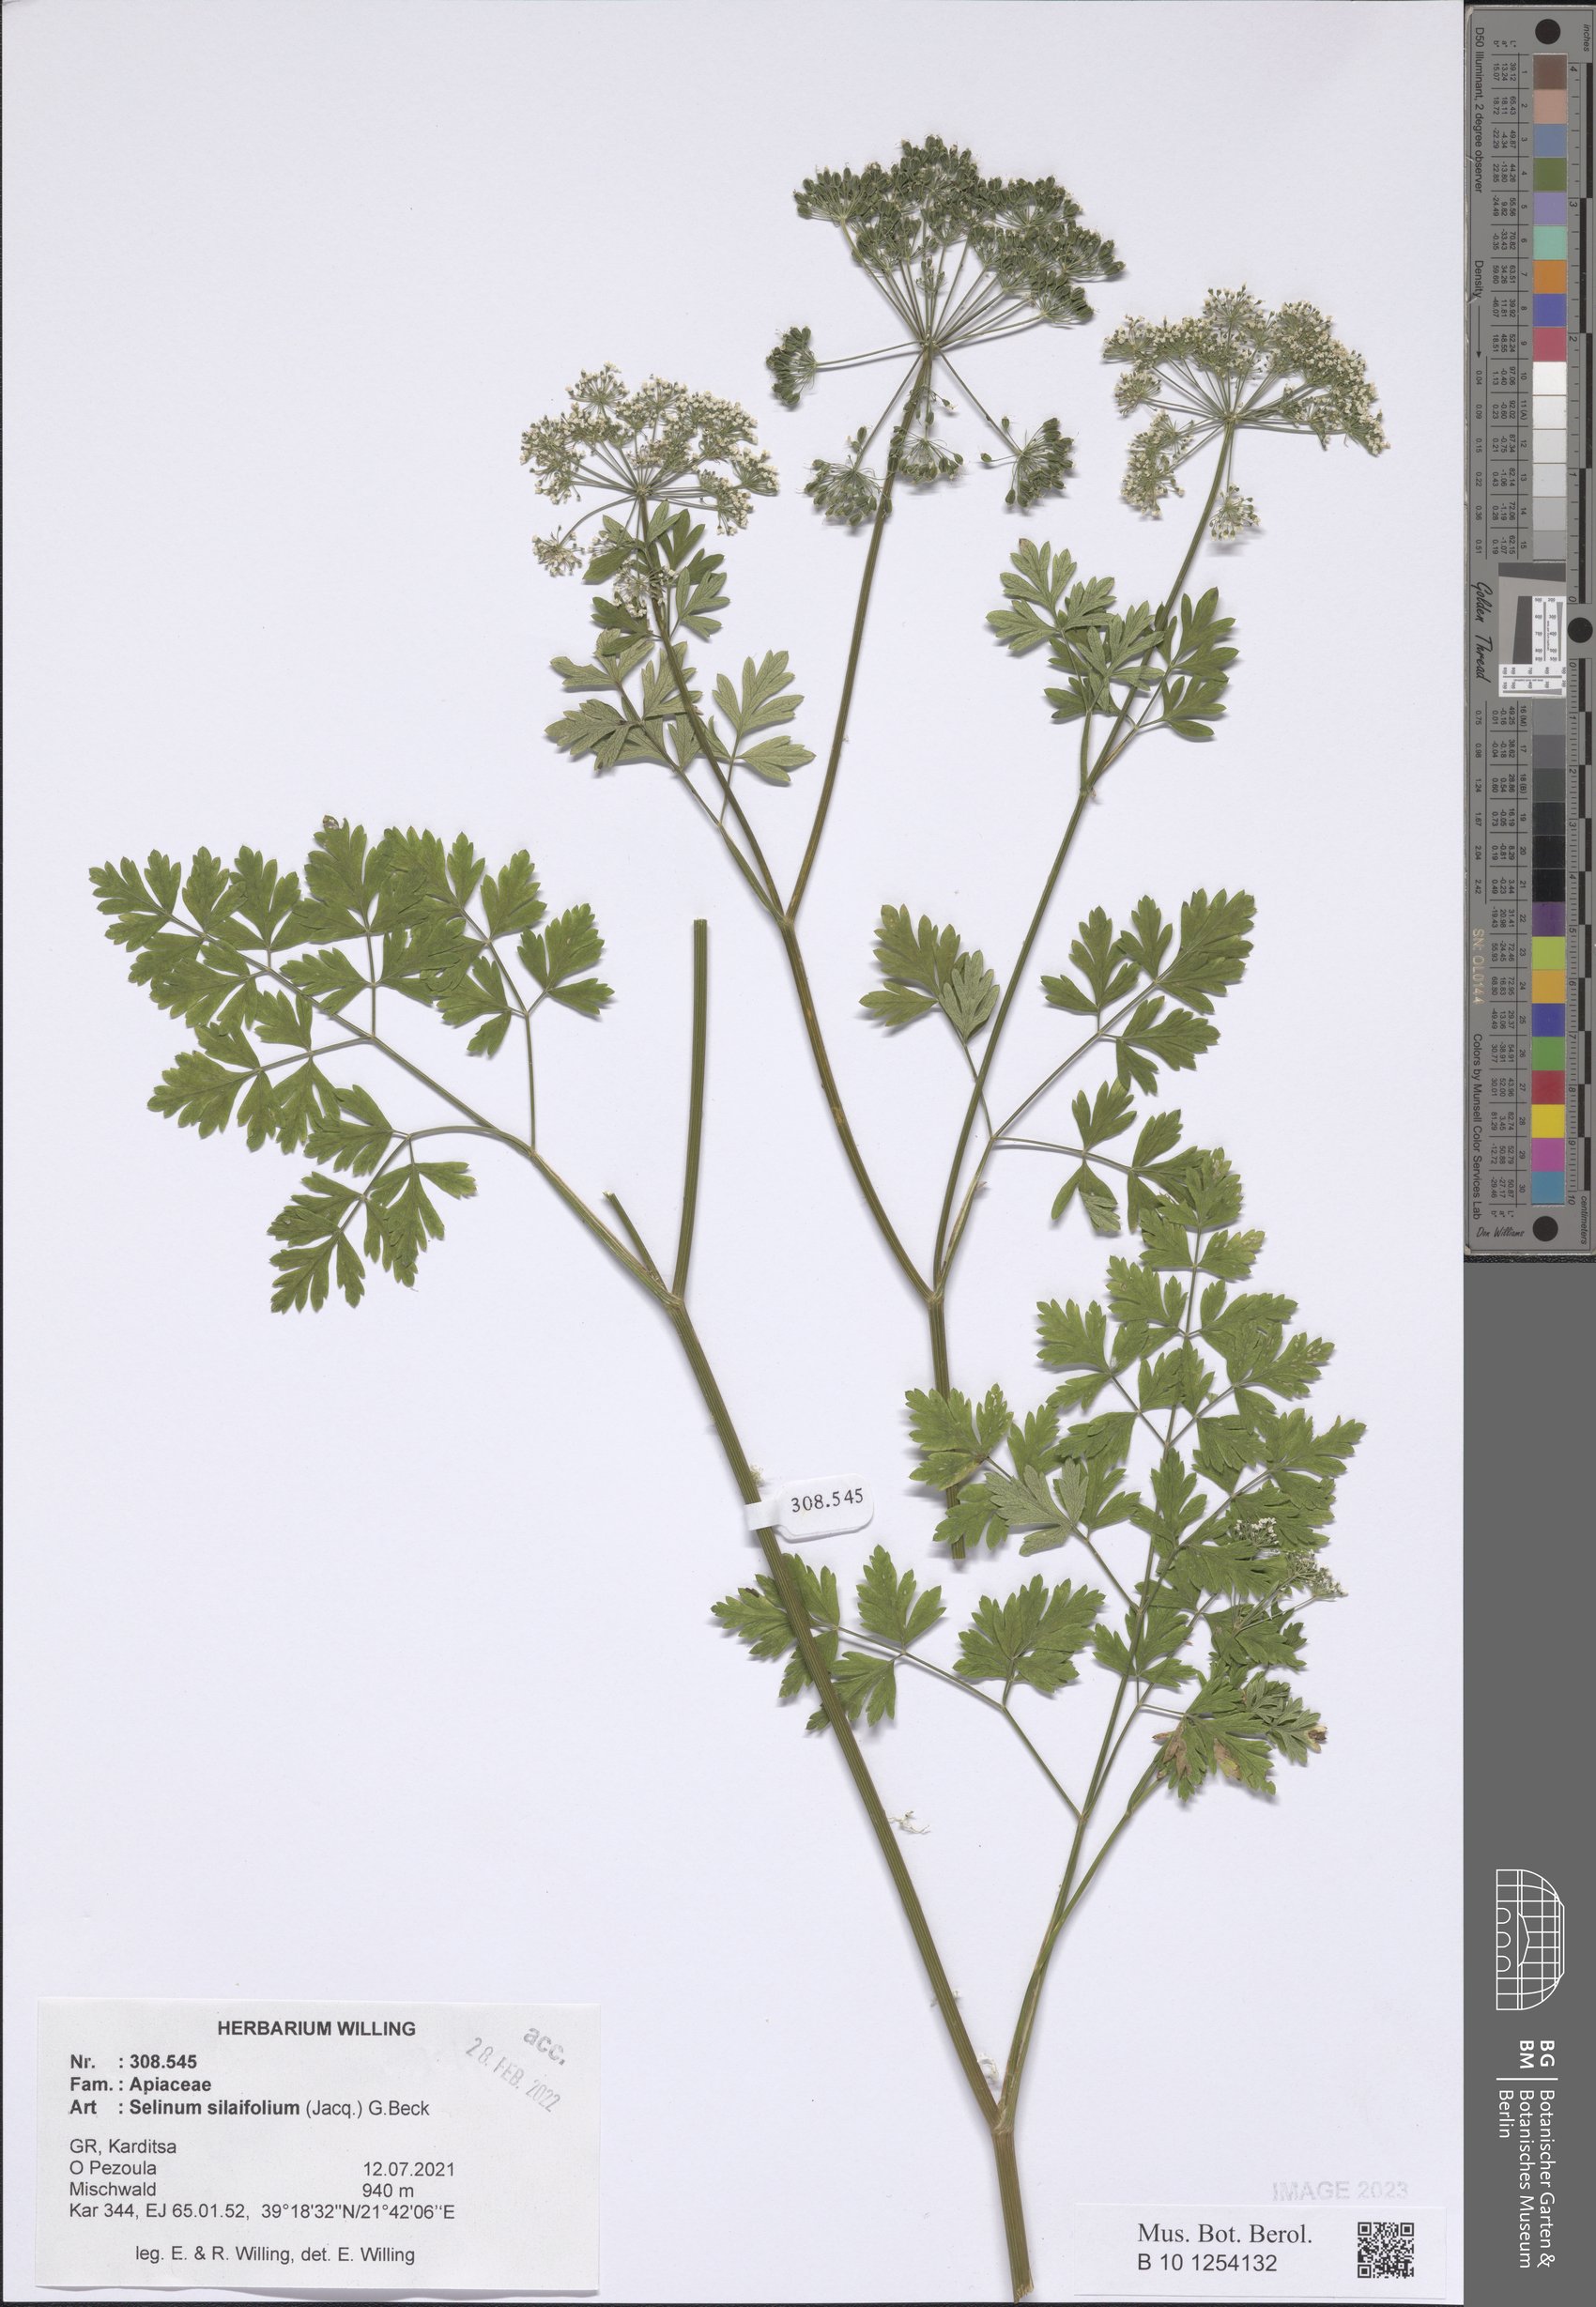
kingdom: Plantae
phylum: Tracheophyta
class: Magnoliopsida
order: Apiales
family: Apiaceae
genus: Katapsuxis
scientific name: Katapsuxis silaifolia
